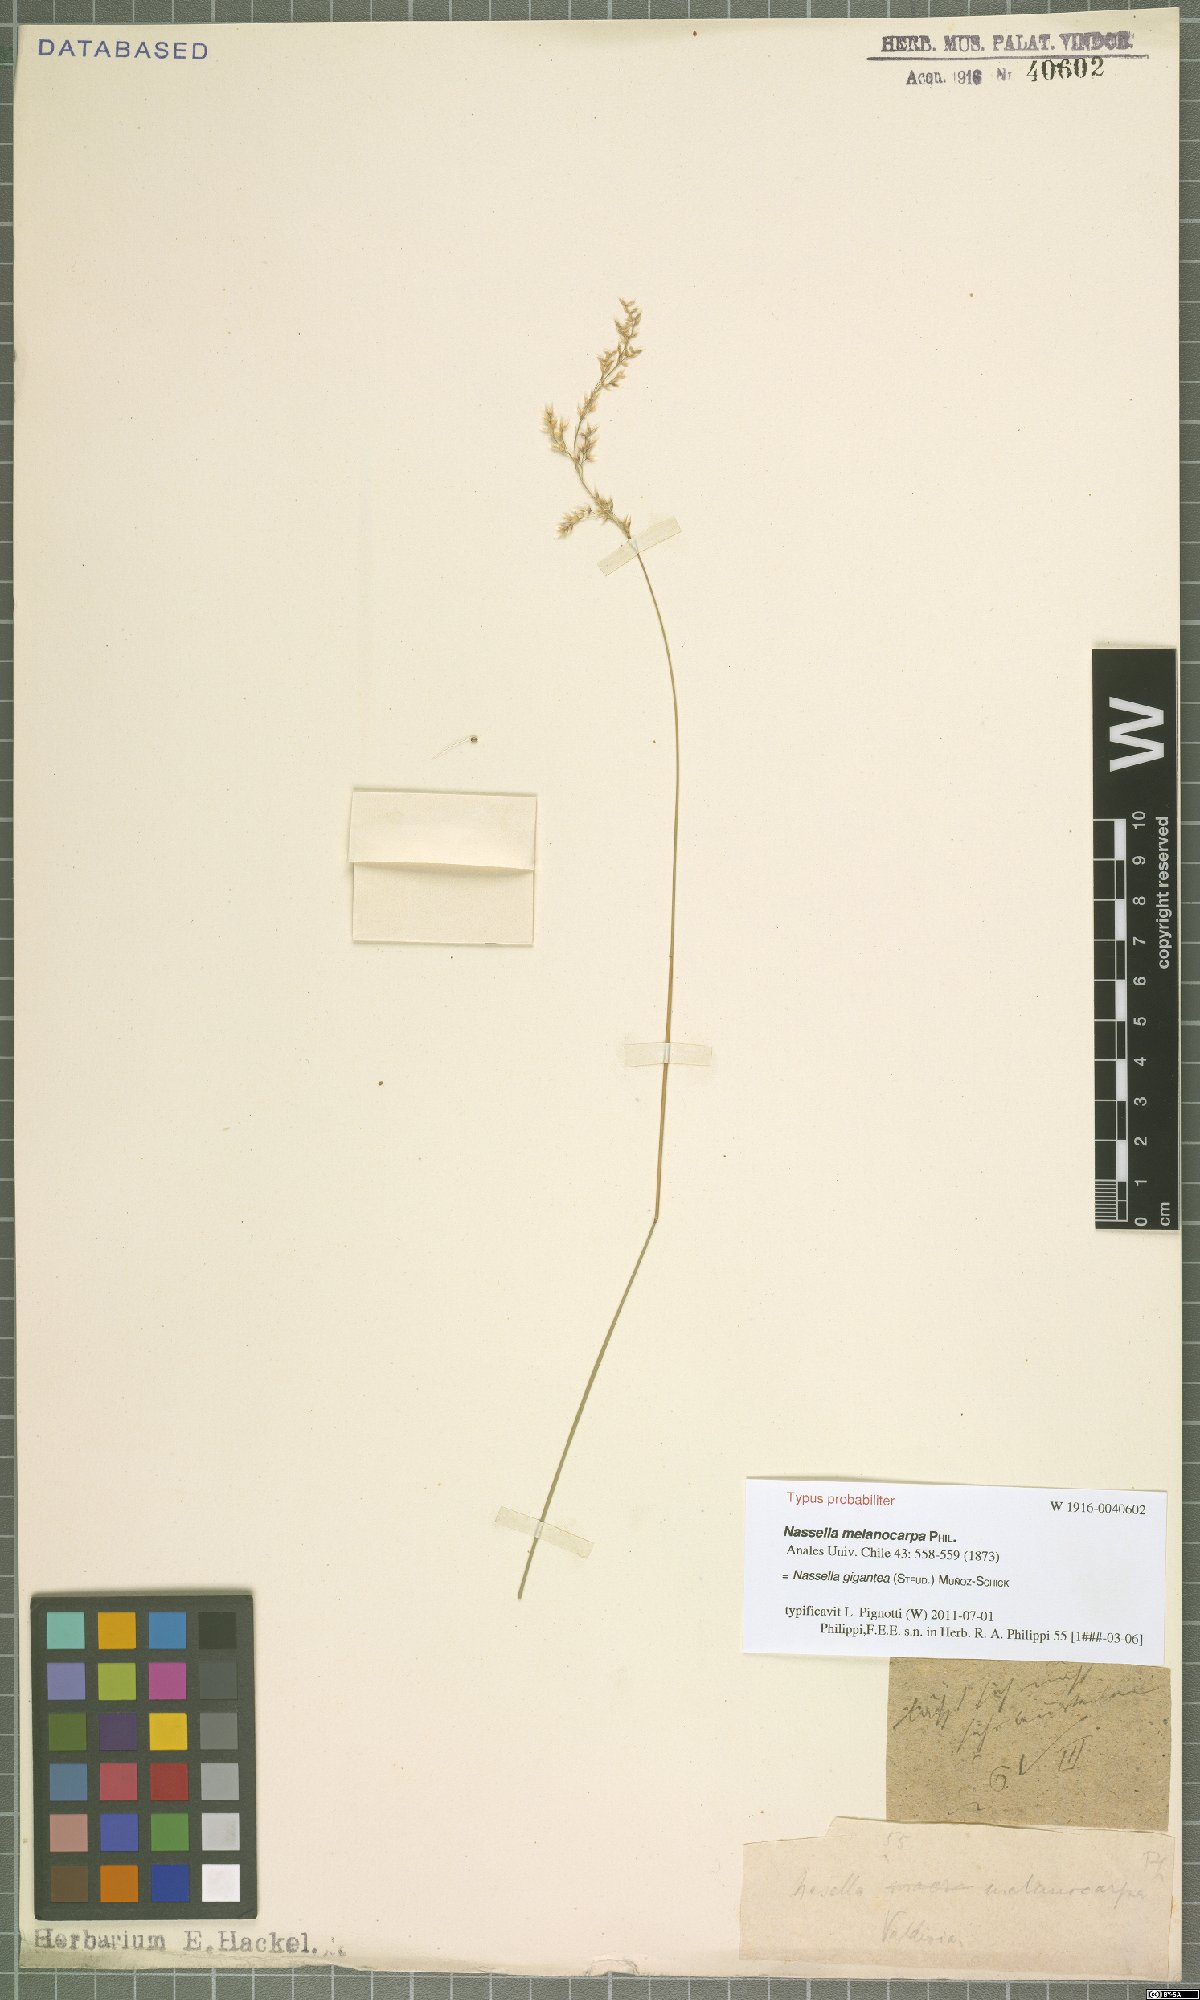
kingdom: Plantae
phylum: Tracheophyta
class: Liliopsida
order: Poales
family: Poaceae
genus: Nassella
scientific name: Nassella gigantea
